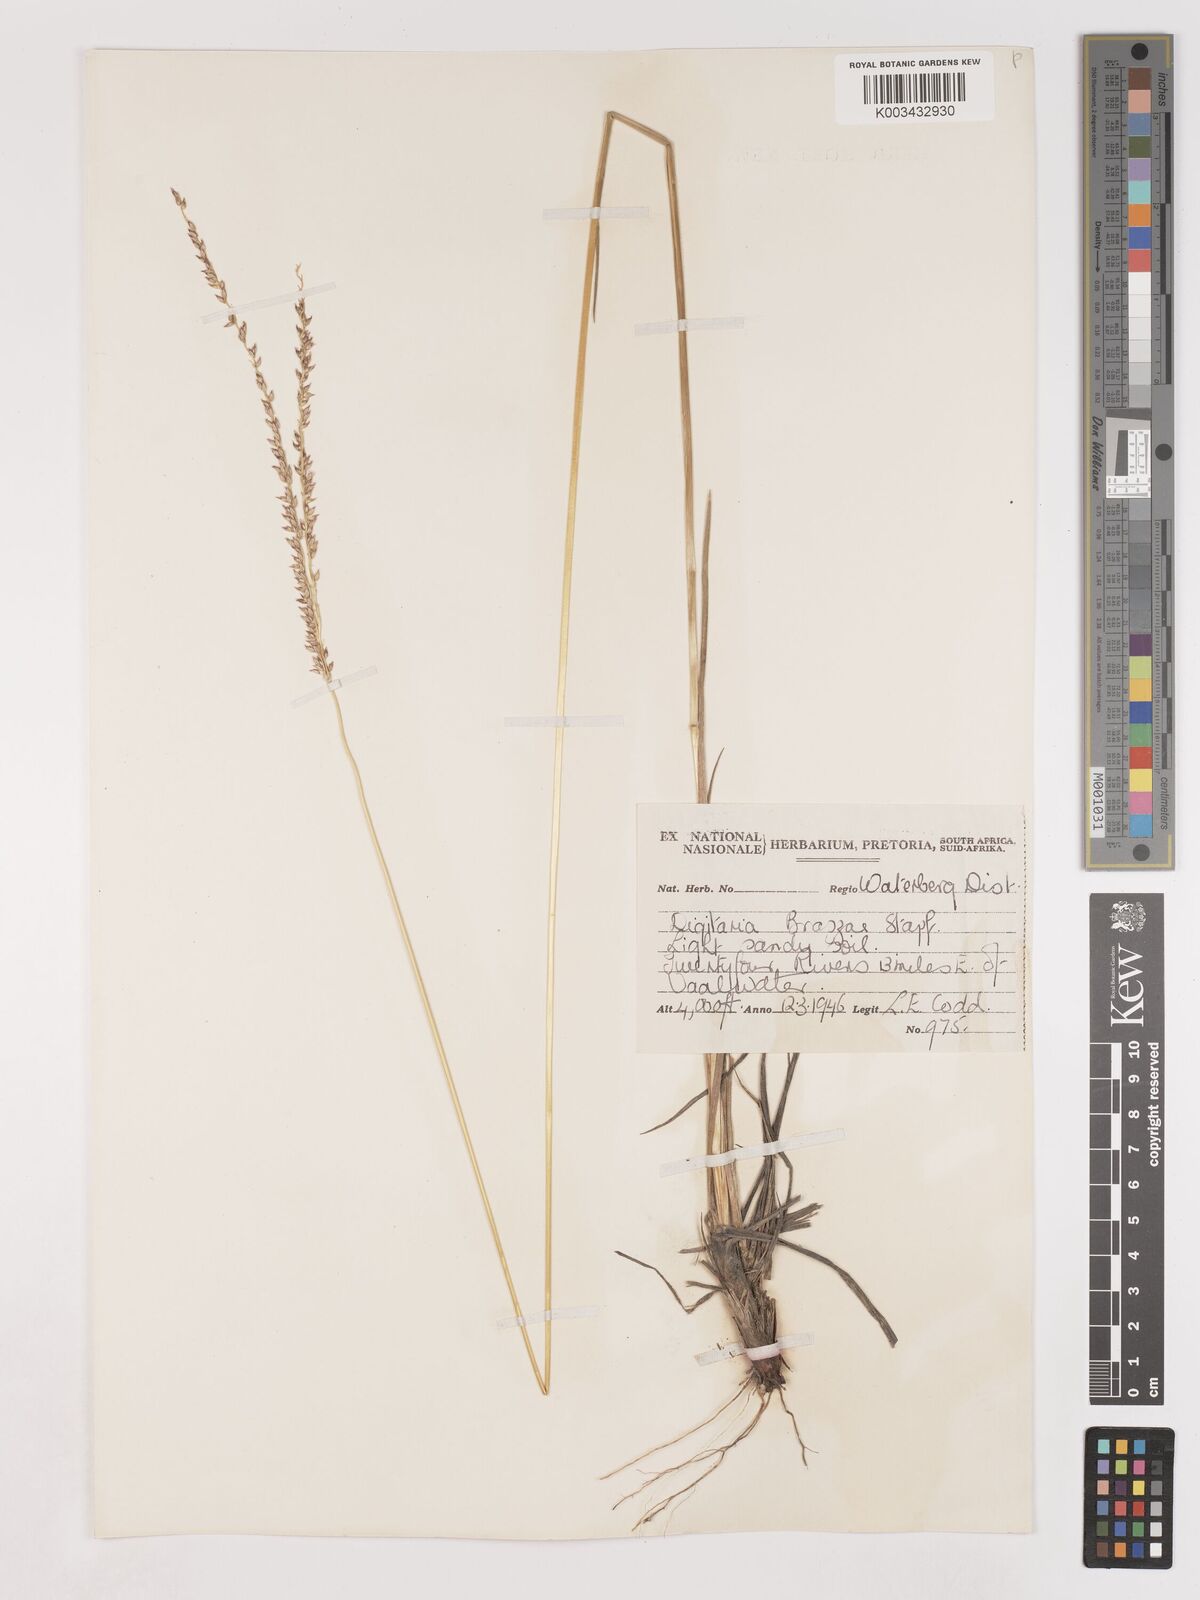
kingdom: Plantae
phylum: Tracheophyta
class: Liliopsida
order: Poales
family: Poaceae
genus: Digitaria
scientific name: Digitaria brazzae
